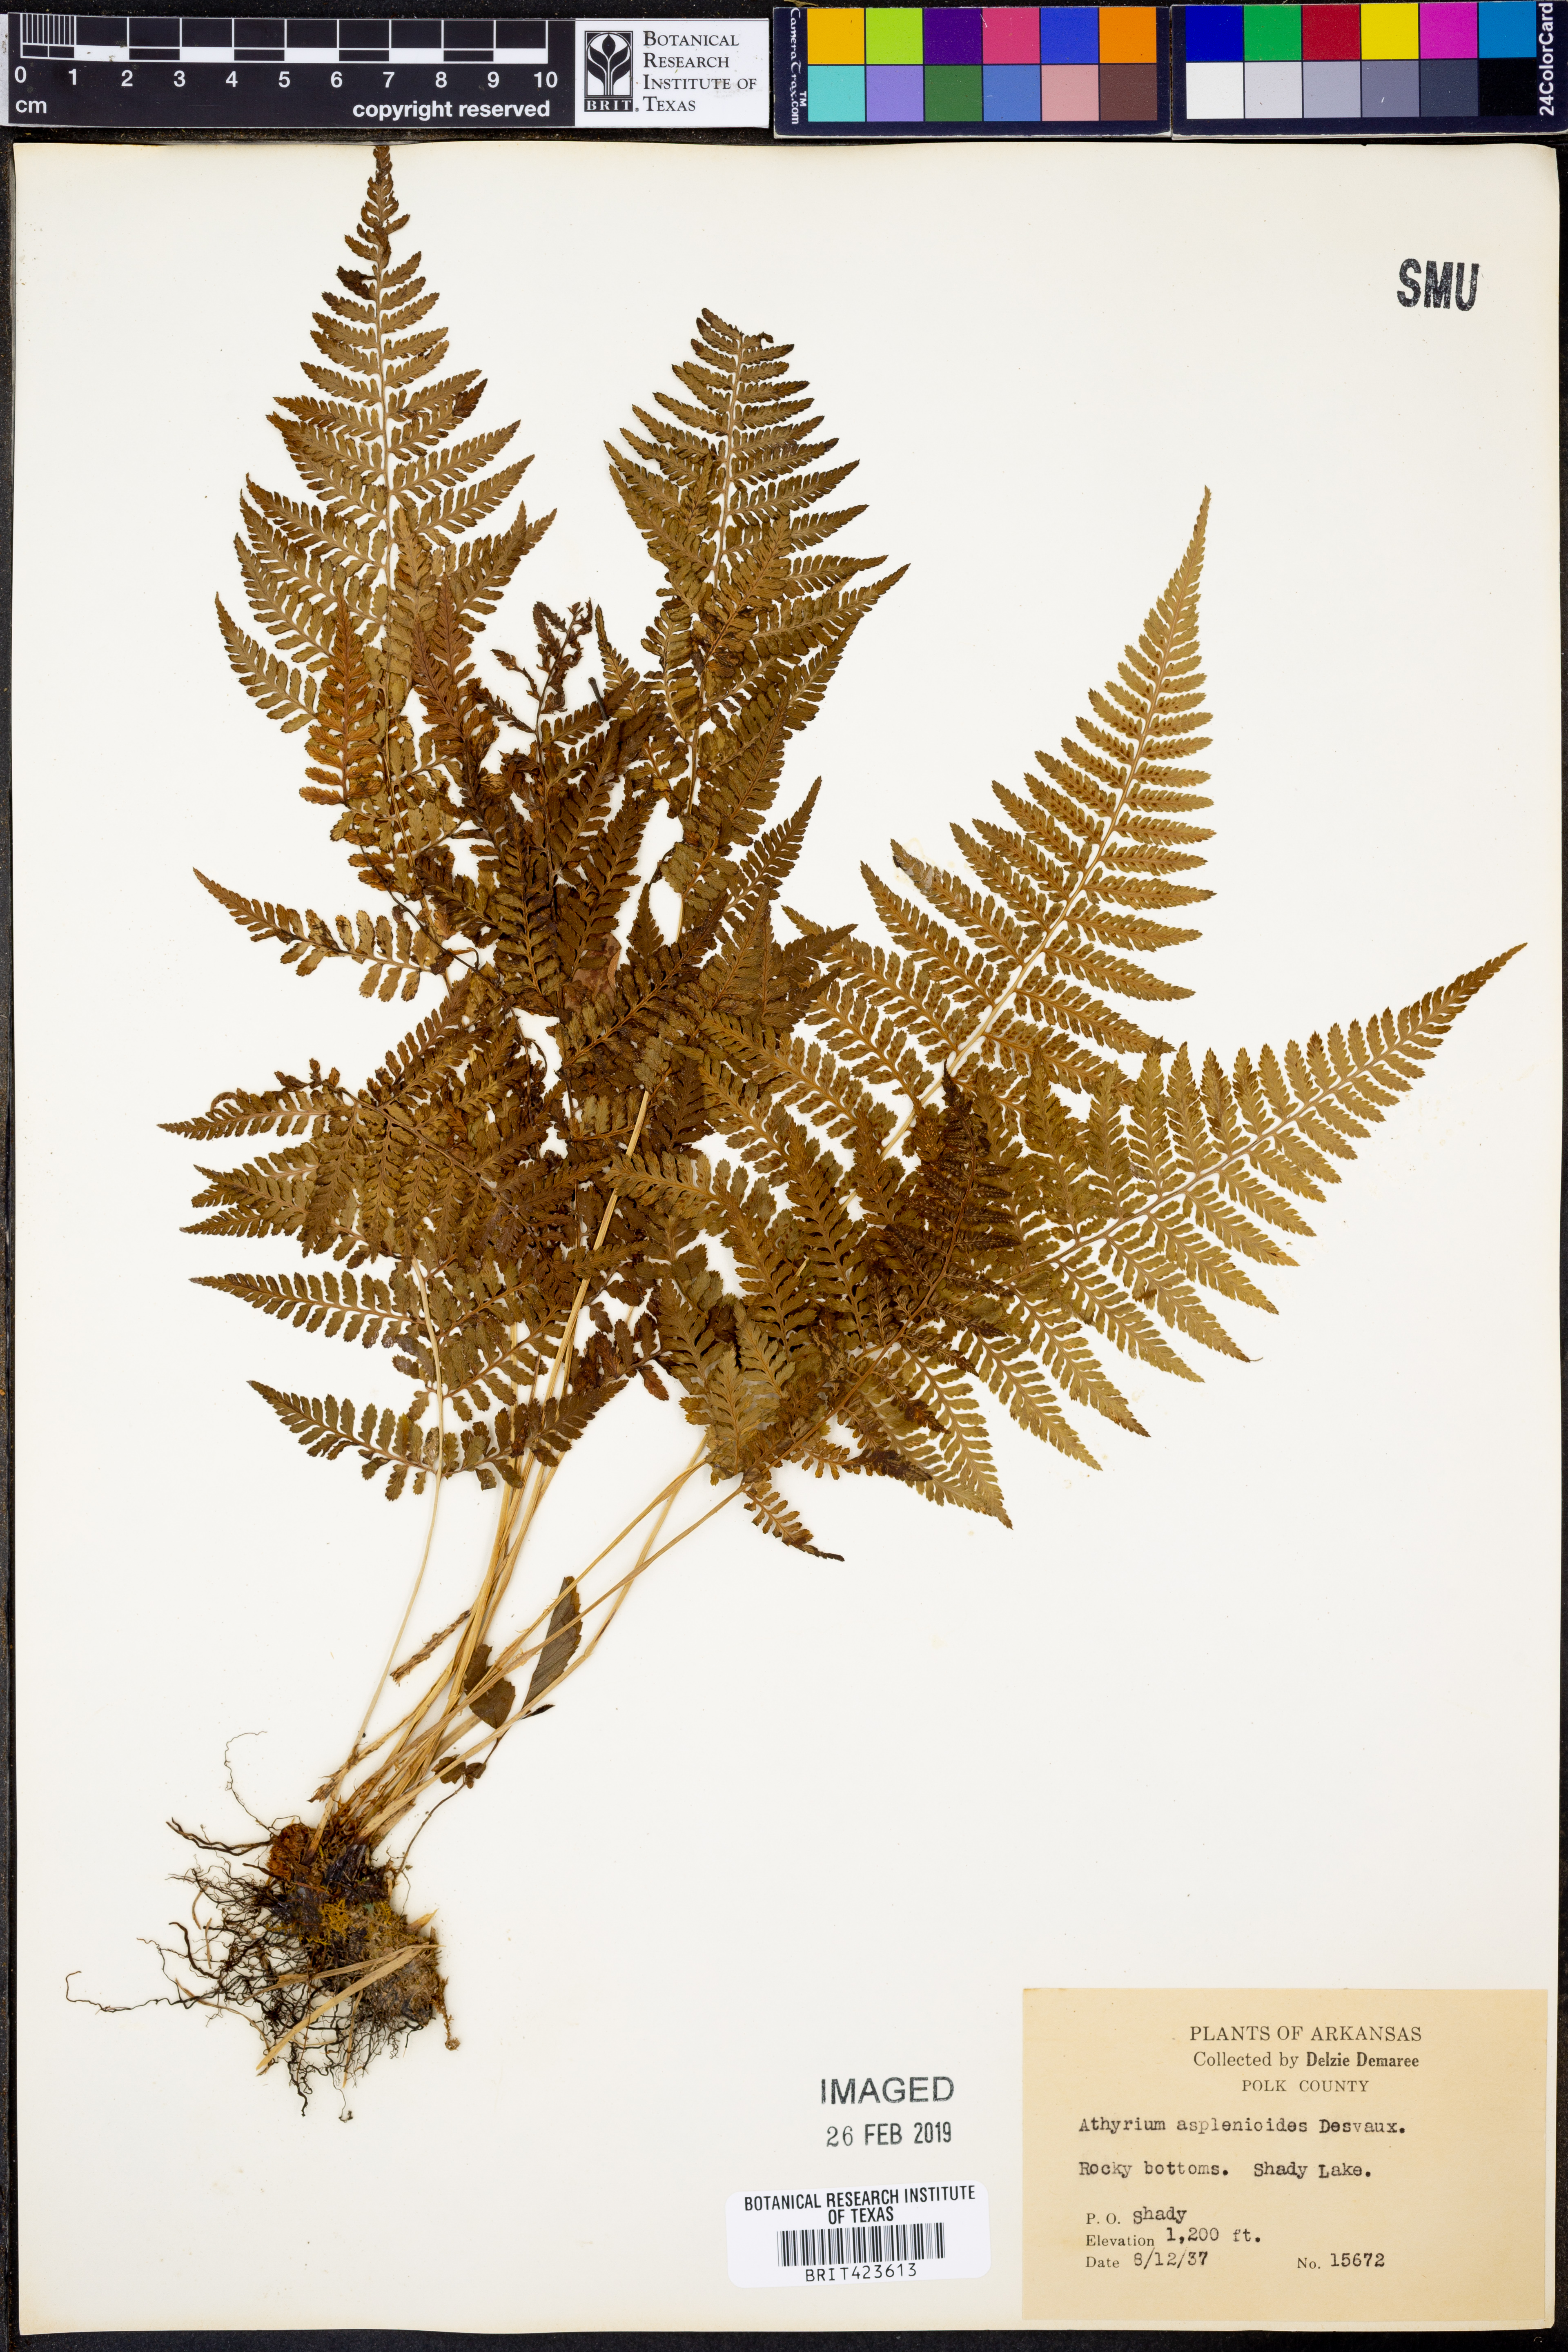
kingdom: Plantae
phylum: Tracheophyta
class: Polypodiopsida
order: Polypodiales
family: Athyriaceae
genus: Athyrium
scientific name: Athyrium asplenioides
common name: Southern lady fern
